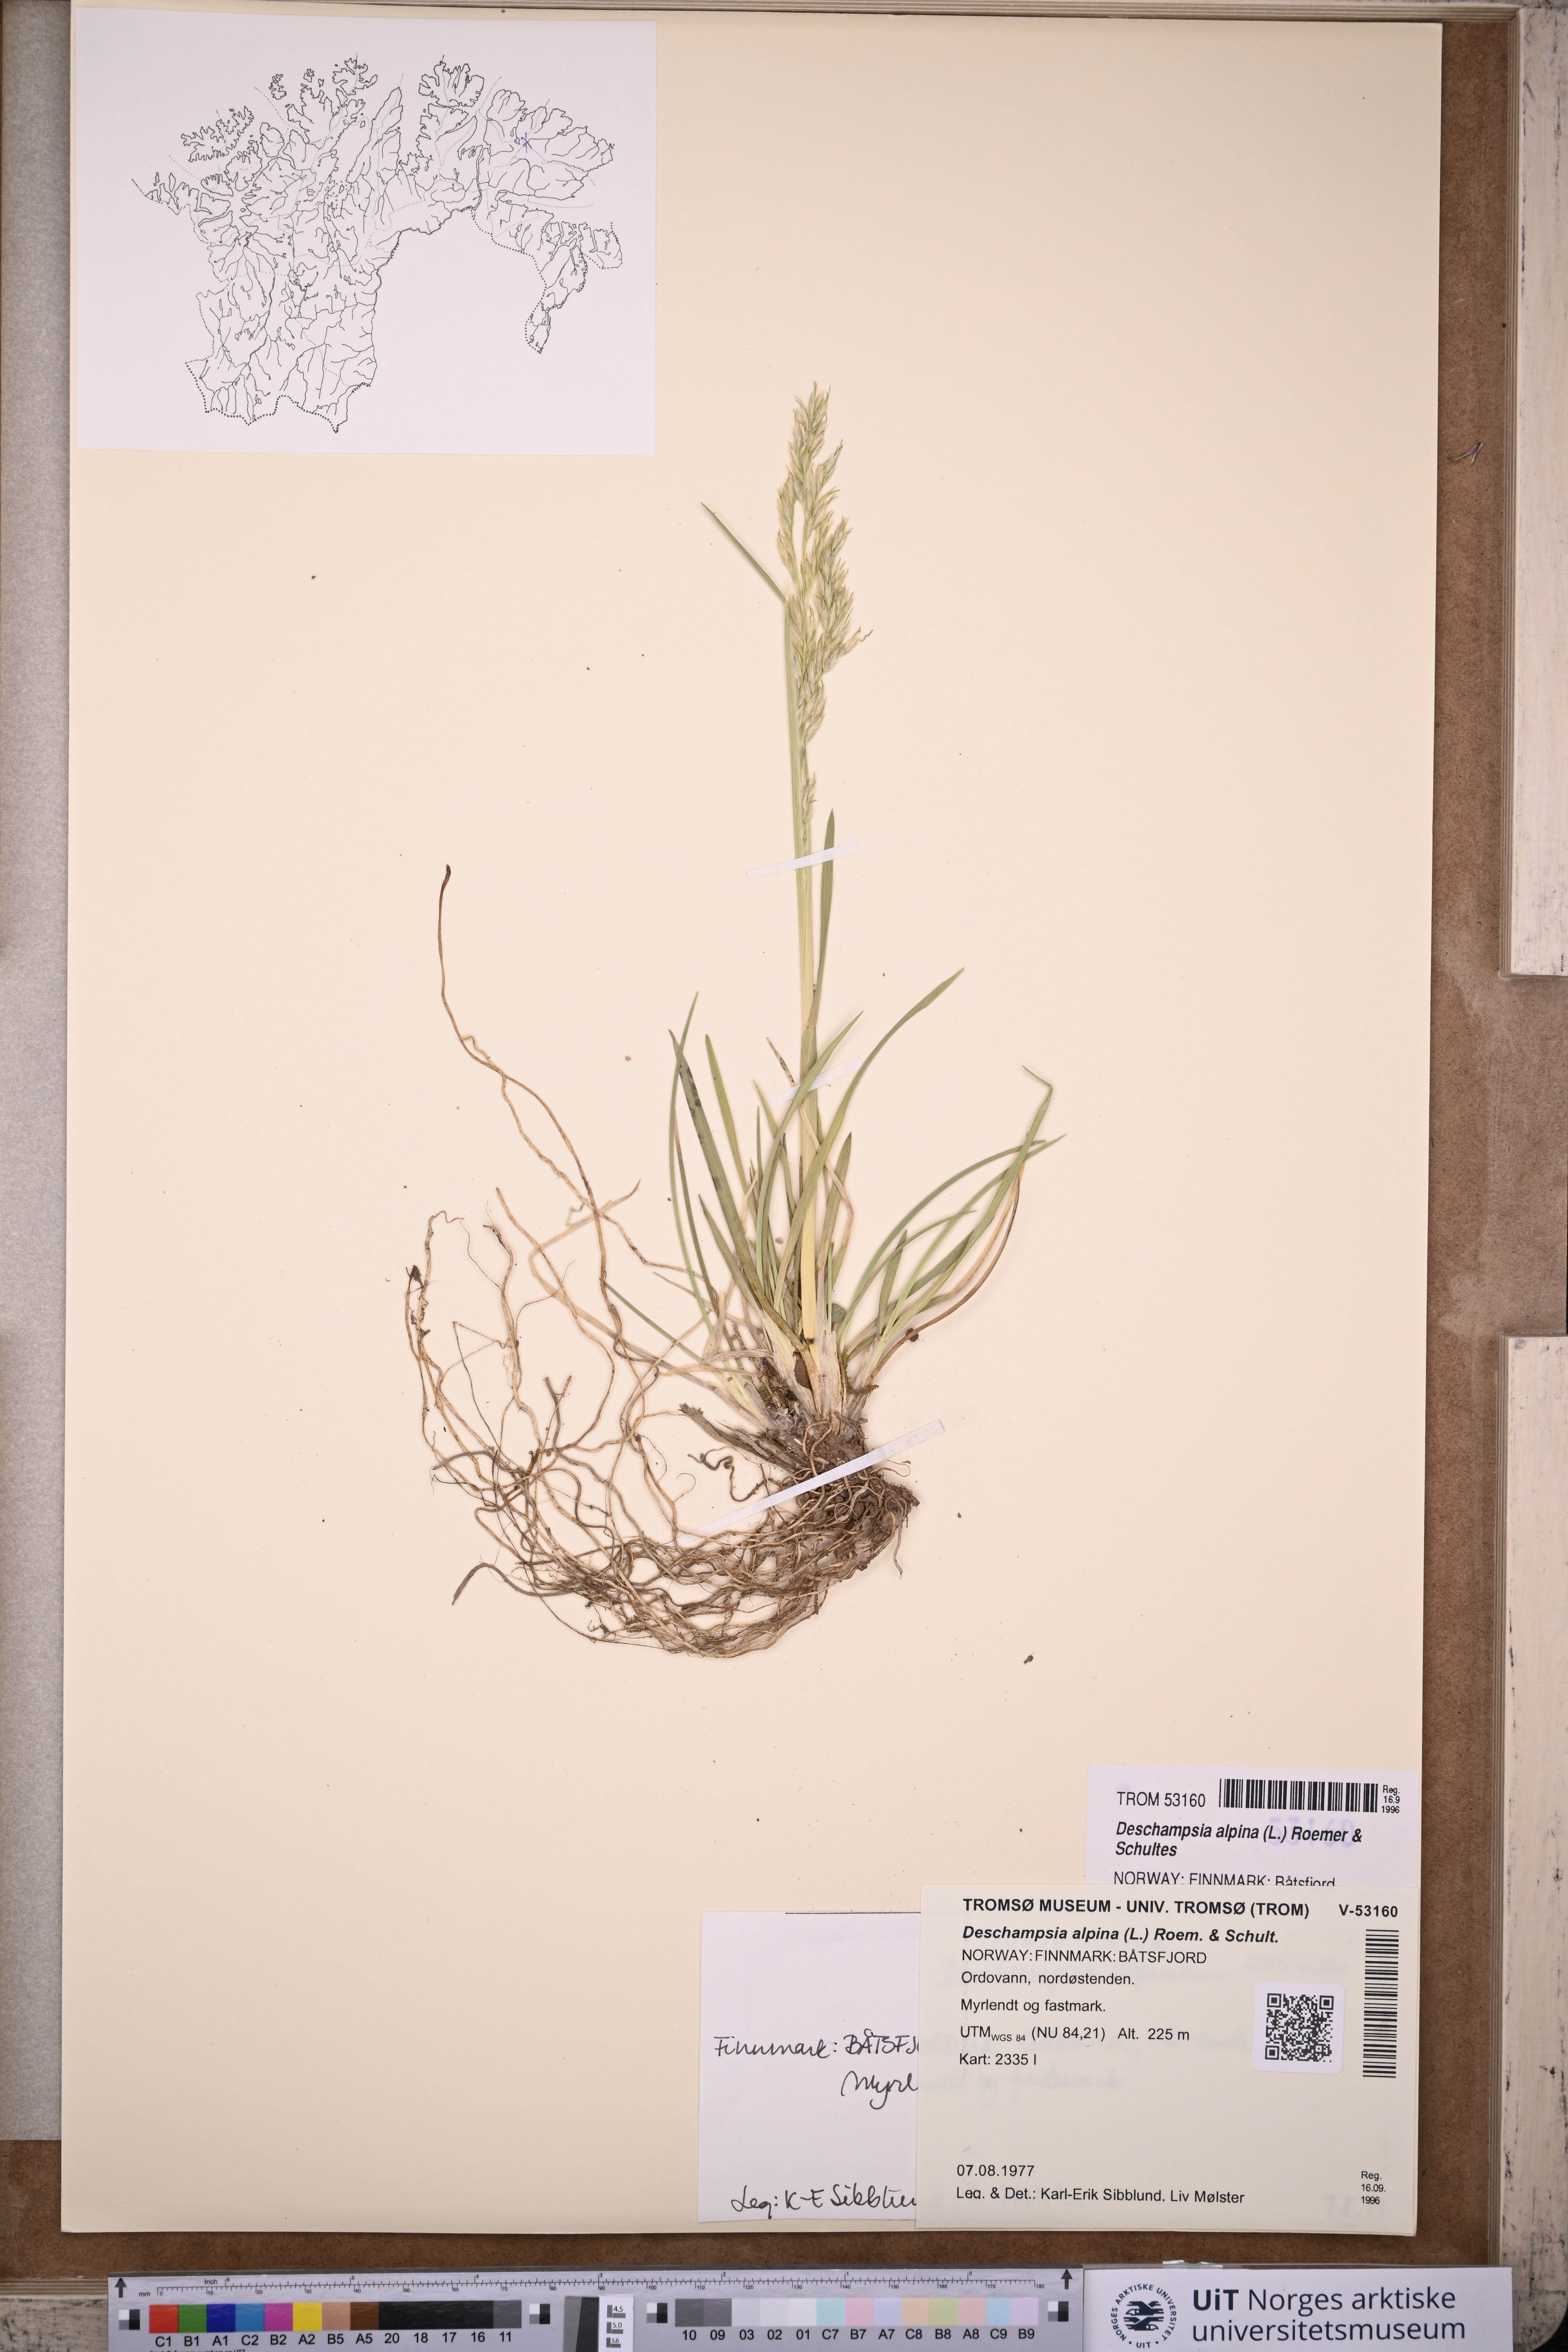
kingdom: Plantae
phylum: Tracheophyta
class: Liliopsida
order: Poales
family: Poaceae
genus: Deschampsia
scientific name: Deschampsia cespitosa
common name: Tufted hair-grass
